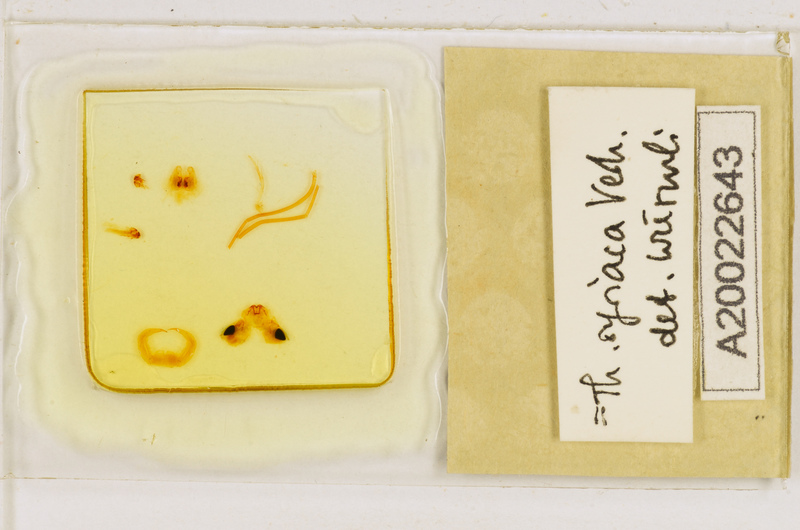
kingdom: Animalia
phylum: Arthropoda
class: Chilopoda
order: Scutigeromorpha
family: Scutigeridae
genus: Thereuonema
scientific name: Thereuonema microstoma
